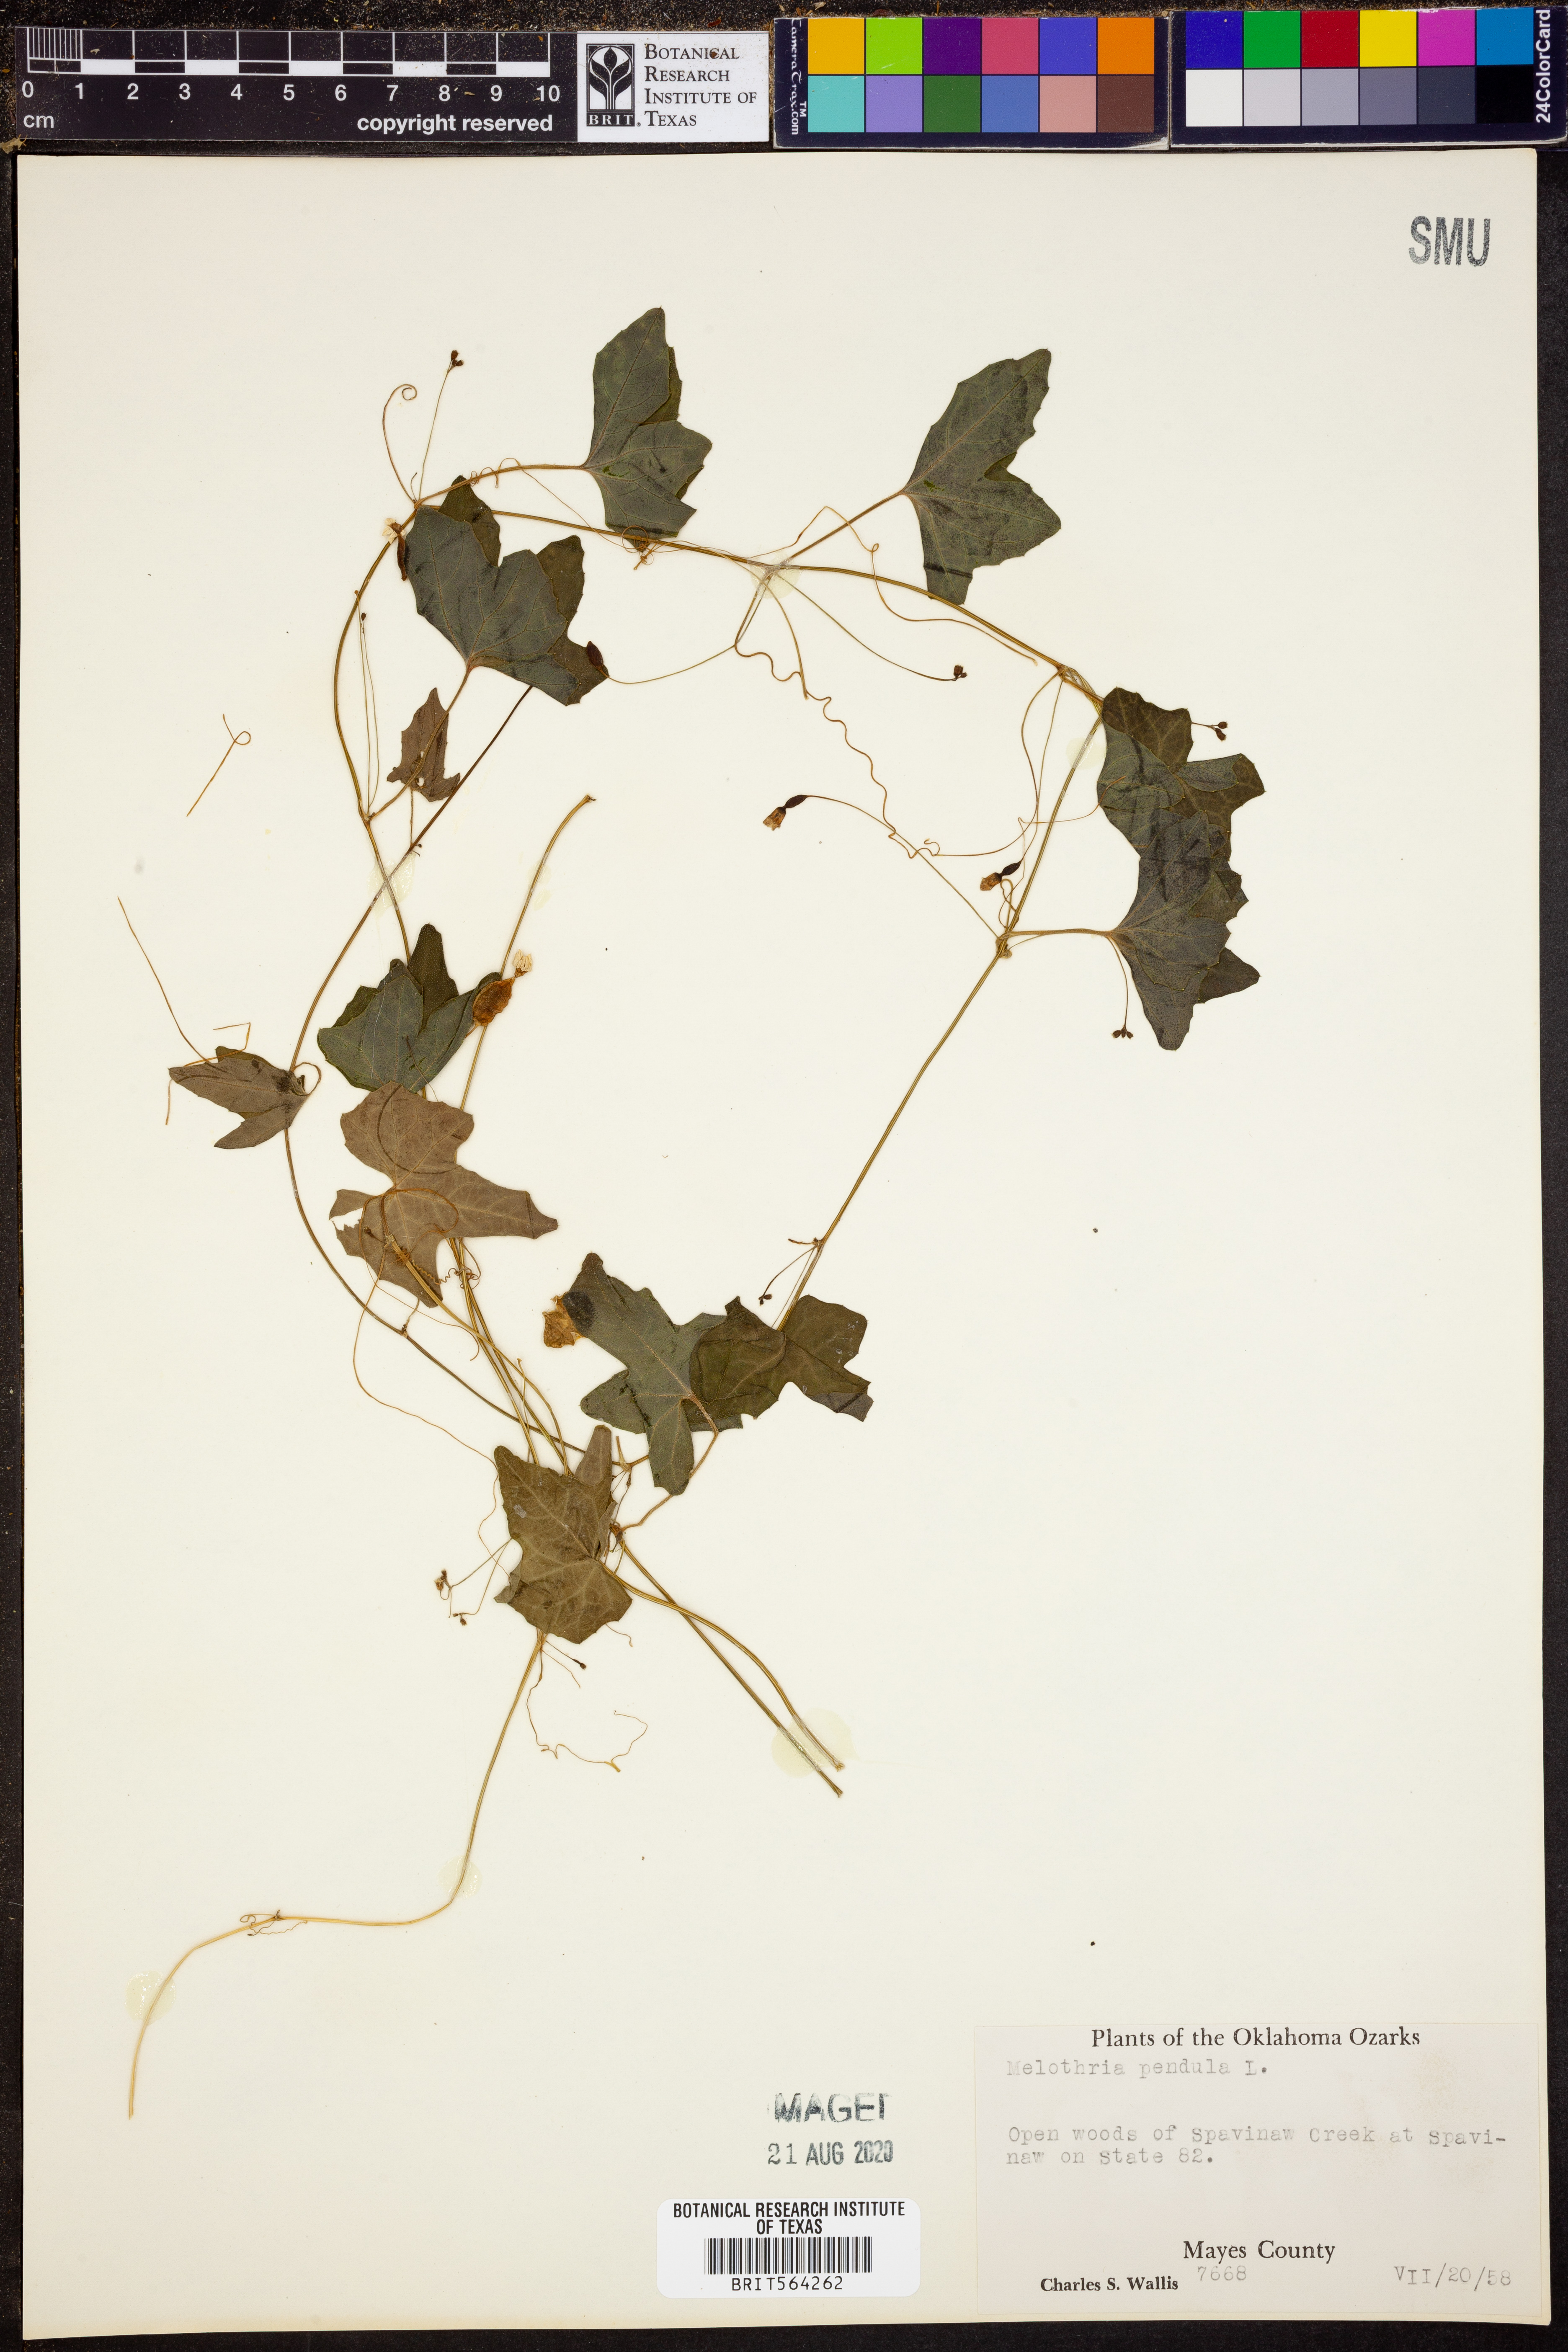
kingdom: Plantae
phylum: Tracheophyta
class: Magnoliopsida
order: Cucurbitales
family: Cucurbitaceae
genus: Melothria
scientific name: Melothria pendula
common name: Creeping-cucumber
